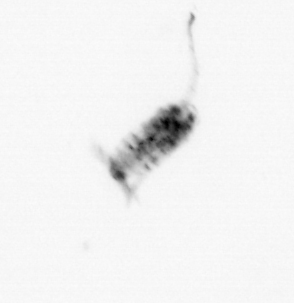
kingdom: Animalia
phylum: Arthropoda
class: Copepoda
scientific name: Copepoda
